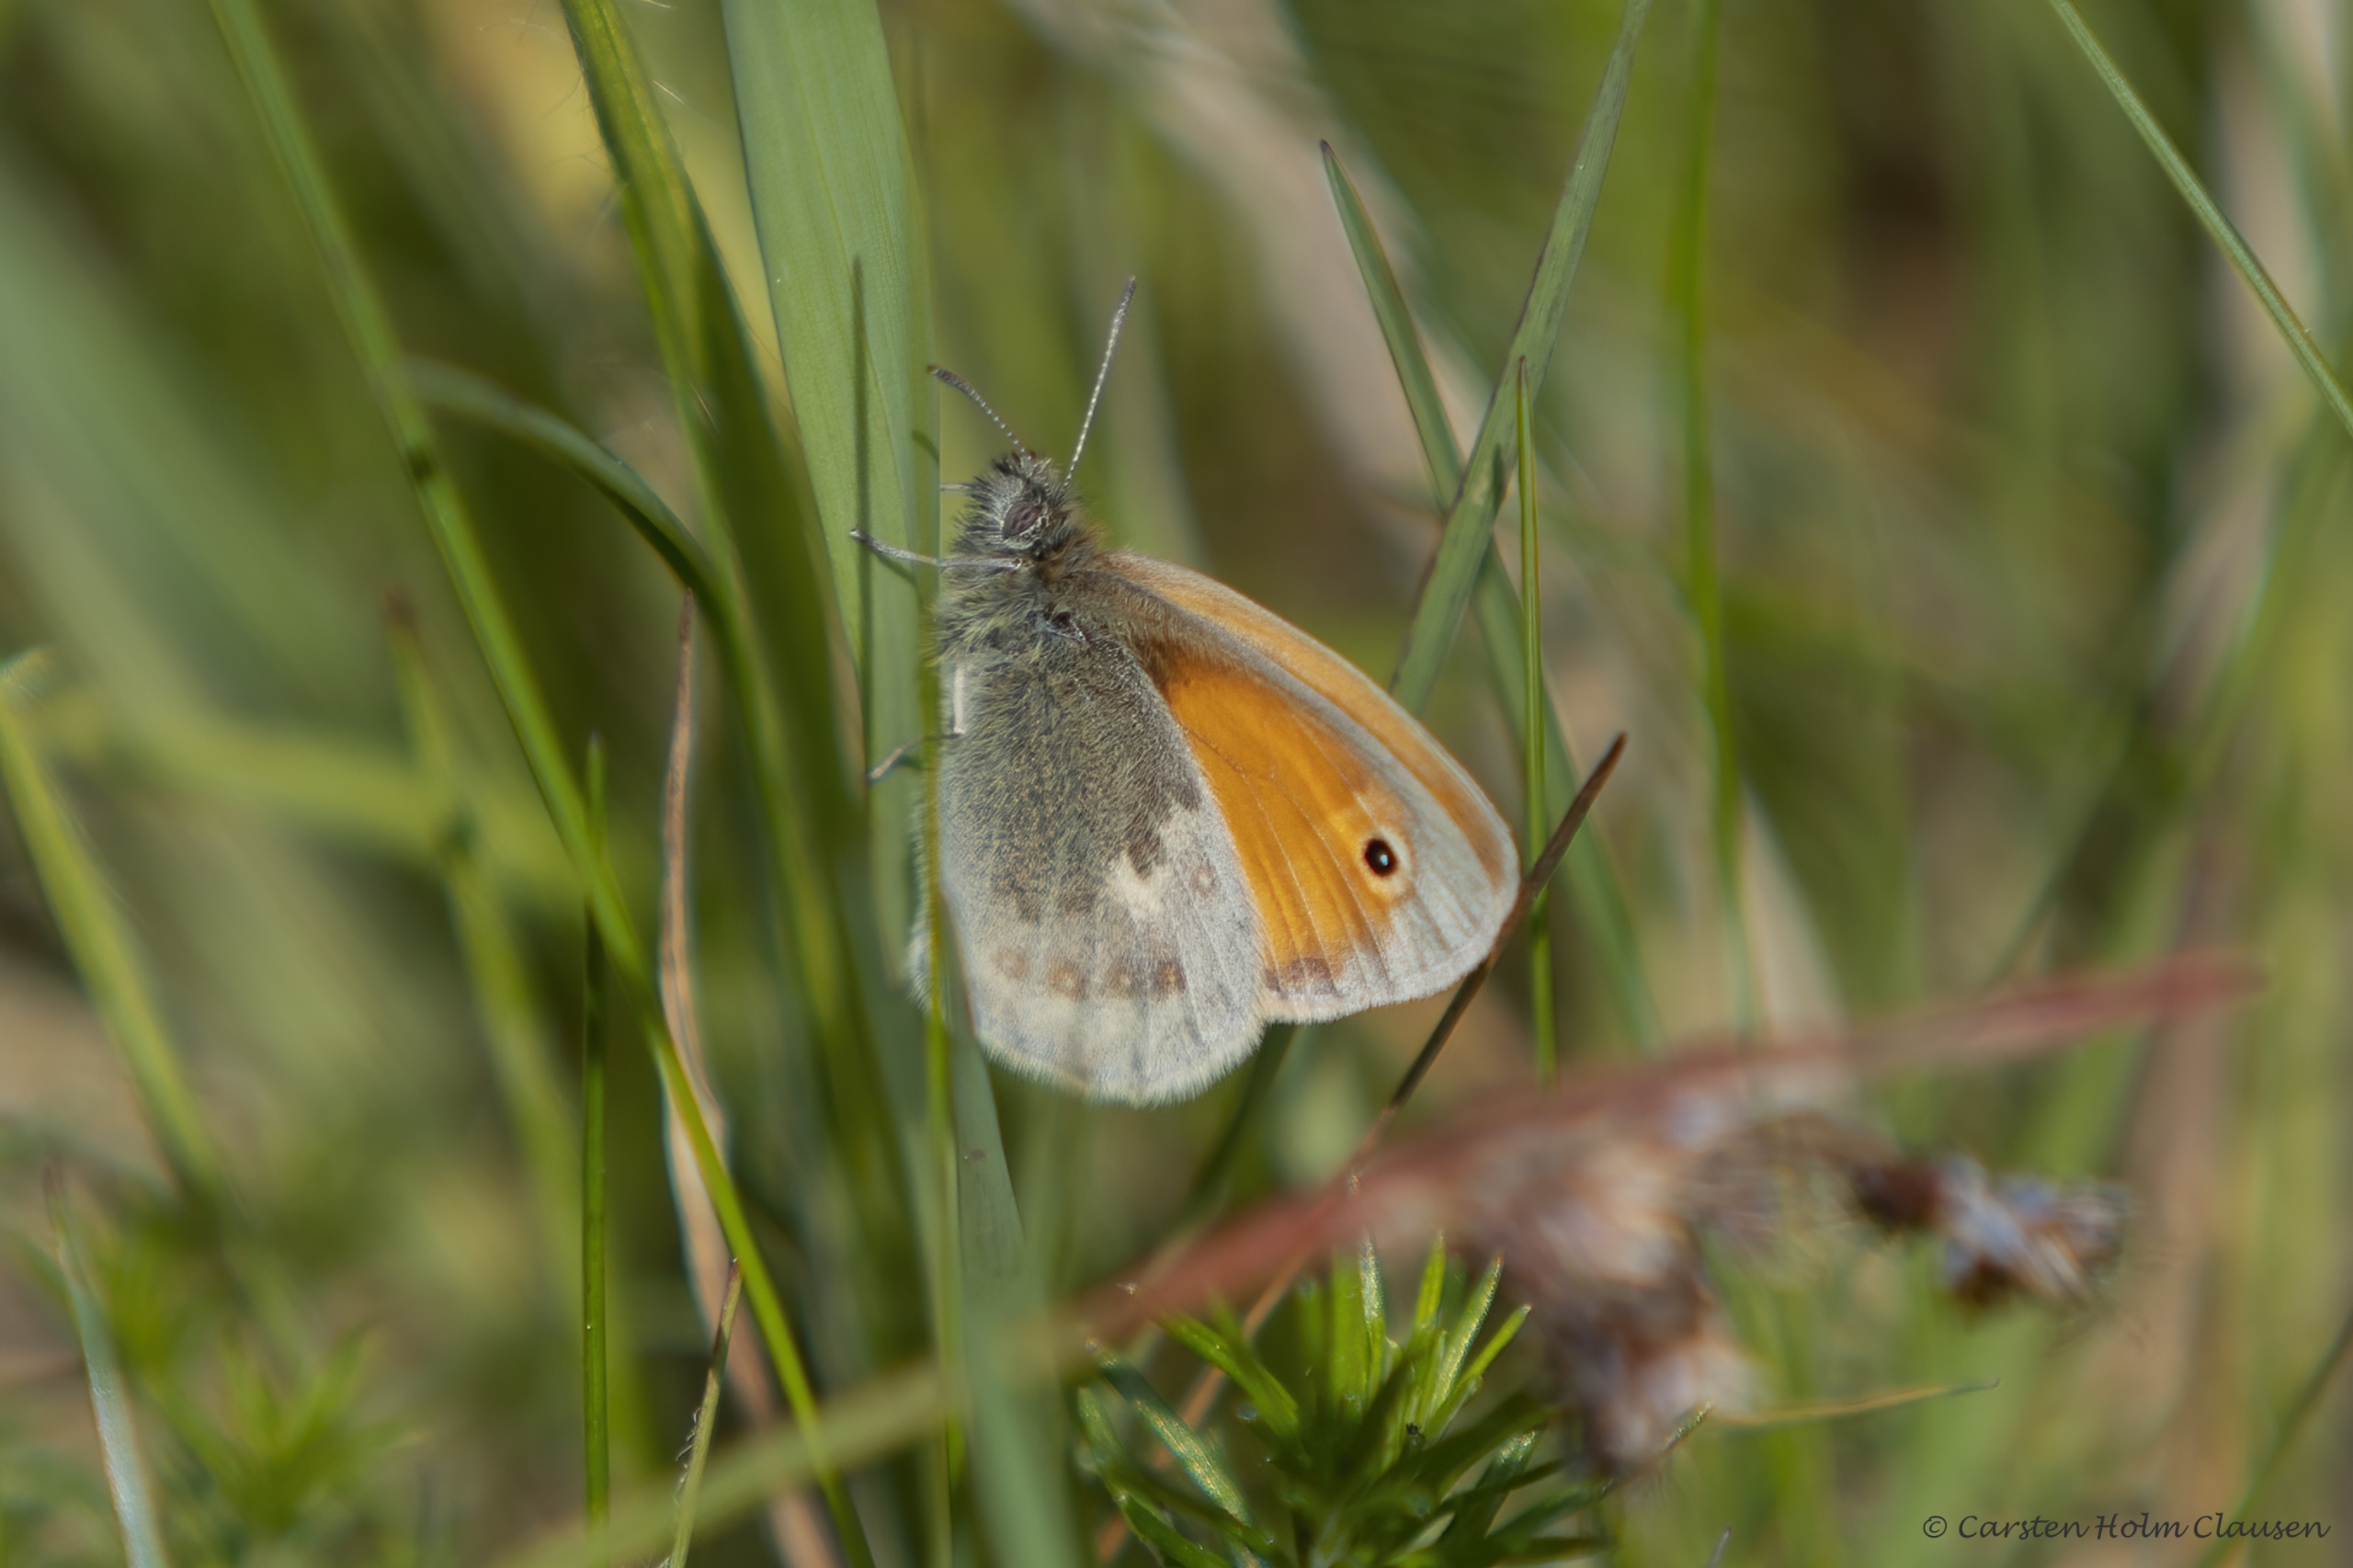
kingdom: Animalia
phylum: Arthropoda
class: Insecta
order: Lepidoptera
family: Nymphalidae
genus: Coenonympha
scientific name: Coenonympha pamphilus
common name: Okkergul randøje
